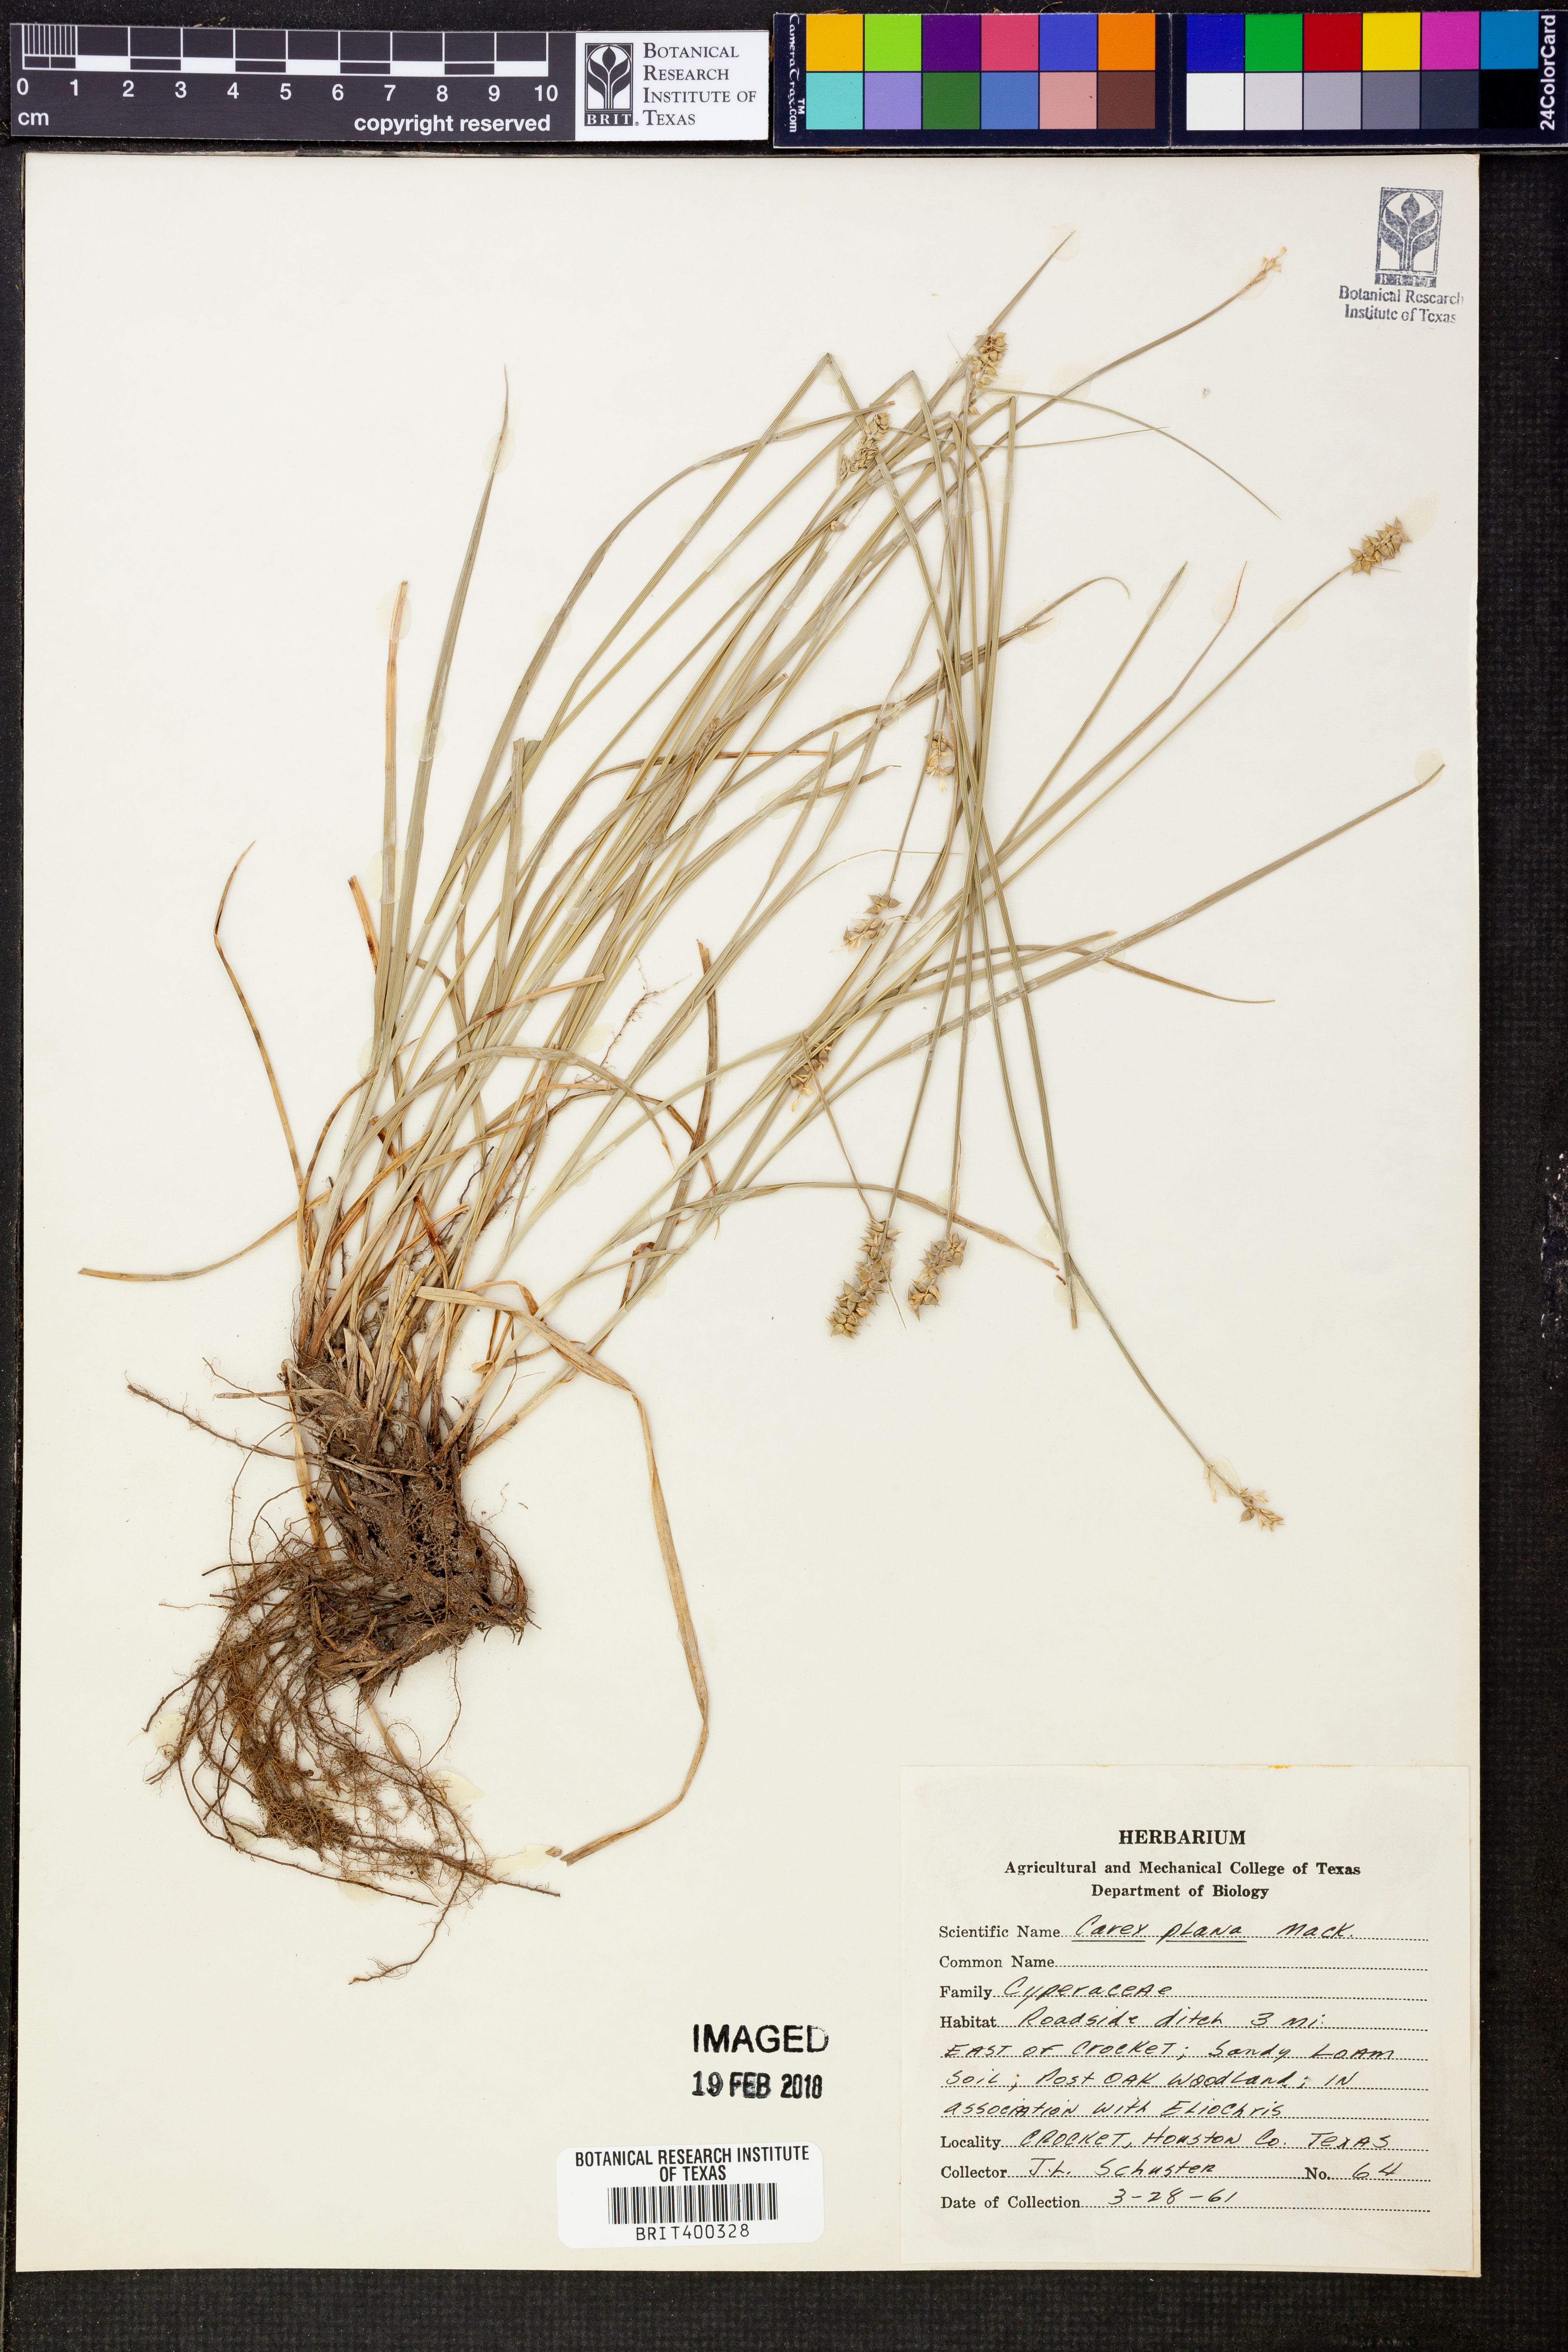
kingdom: Plantae
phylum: Tracheophyta
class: Liliopsida
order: Poales
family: Cyperaceae
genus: Carex
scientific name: Carex muehlenbergii
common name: Muhlenberg's bracted sedge
